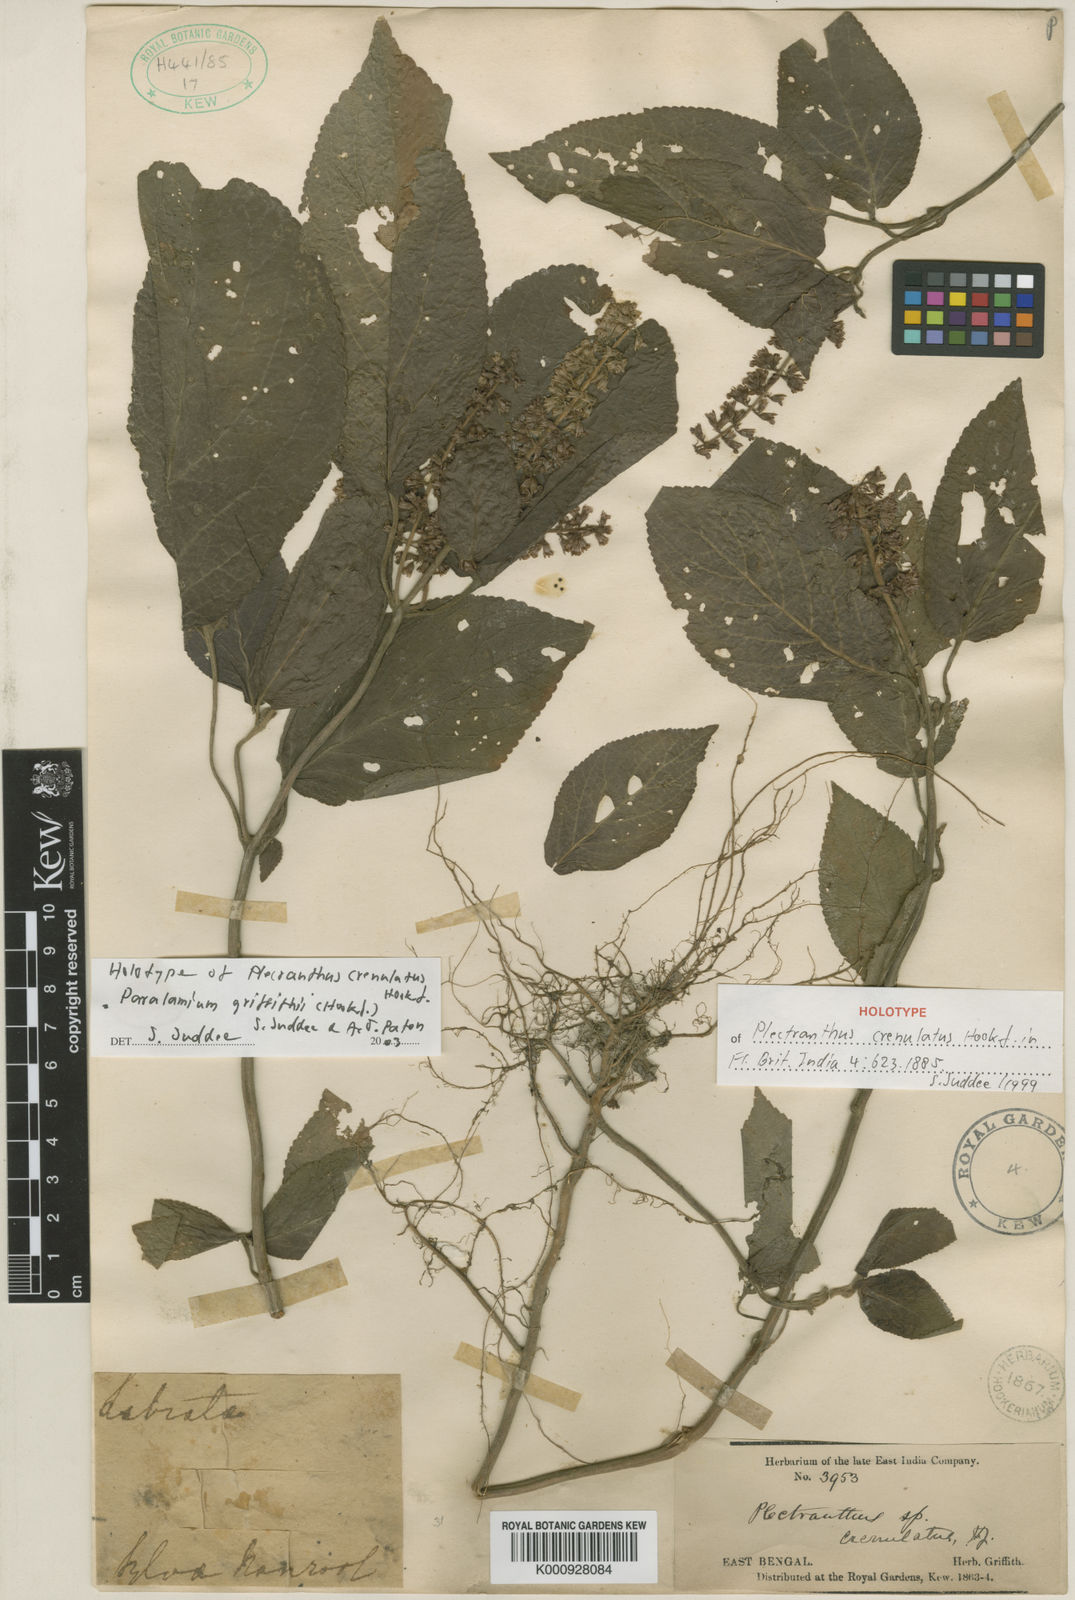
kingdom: Plantae
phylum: Tracheophyta
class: Magnoliopsida
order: Lamiales
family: Lamiaceae
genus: Paralamium
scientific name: Paralamium griffithii
